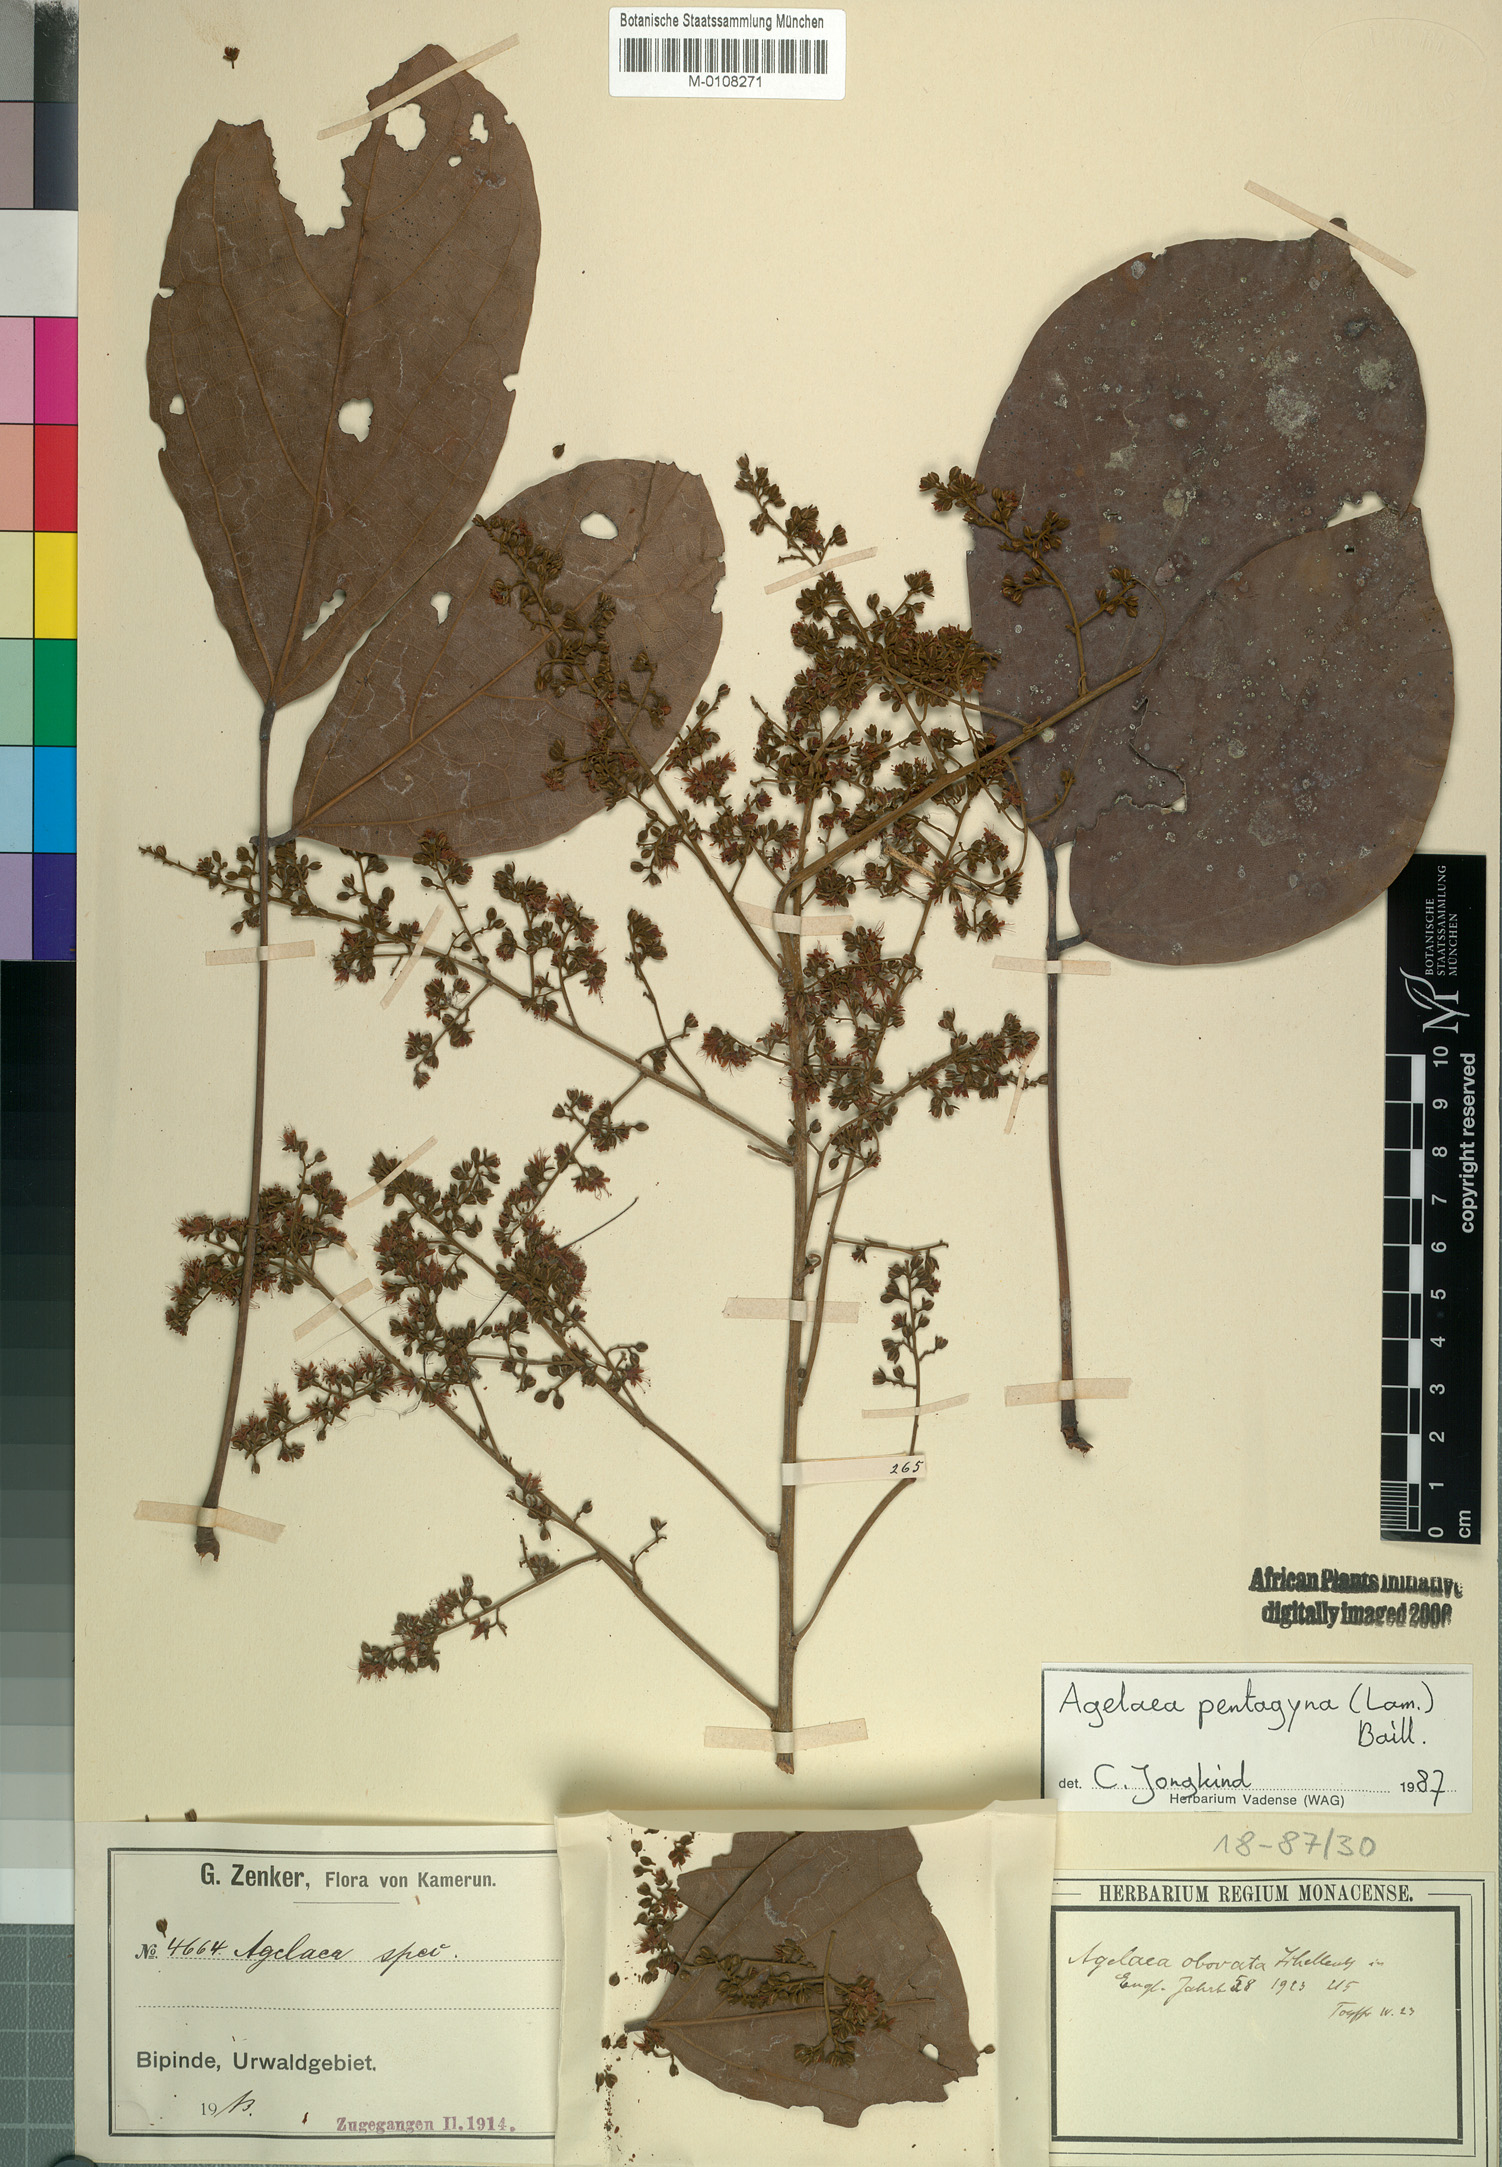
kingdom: Plantae
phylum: Tracheophyta
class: Magnoliopsida
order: Oxalidales
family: Connaraceae
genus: Agelaea
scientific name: Agelaea pentagyna
